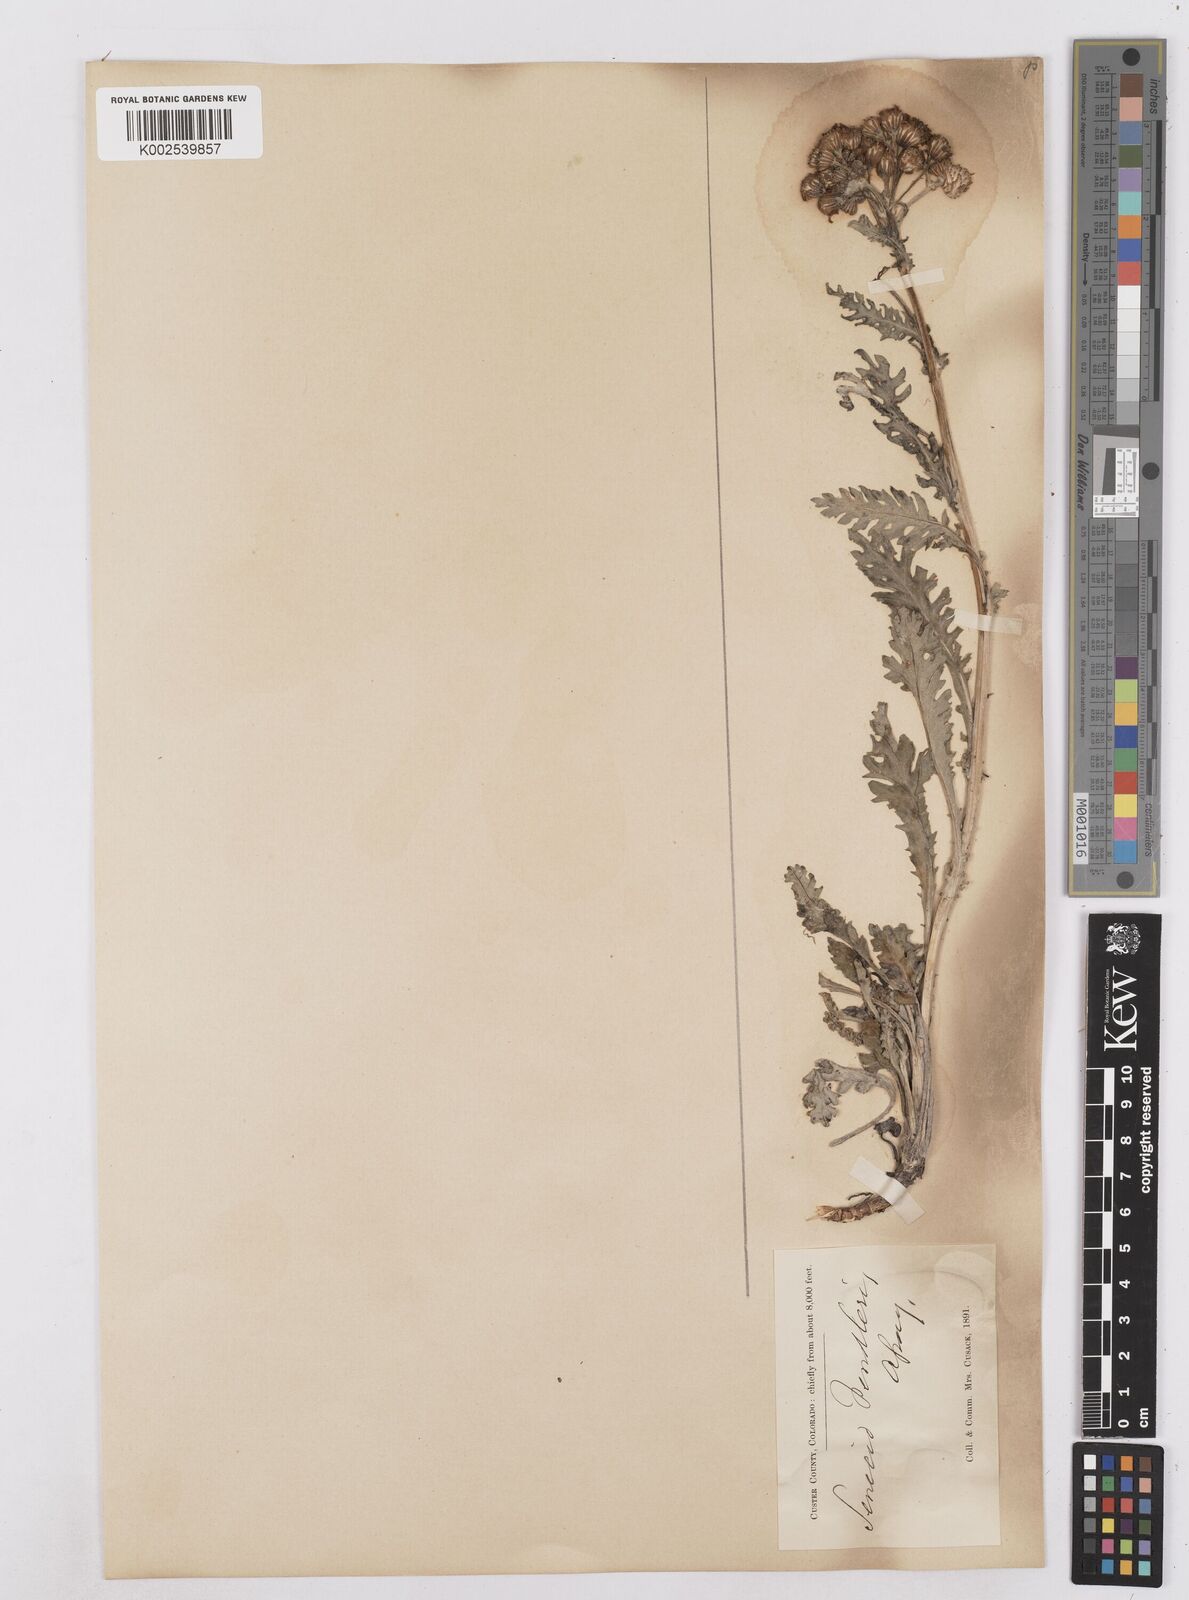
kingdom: Plantae
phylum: Tracheophyta
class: Magnoliopsida
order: Asterales
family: Asteraceae
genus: Packera
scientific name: Packera fendleri
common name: Notch-leaf butterweed
